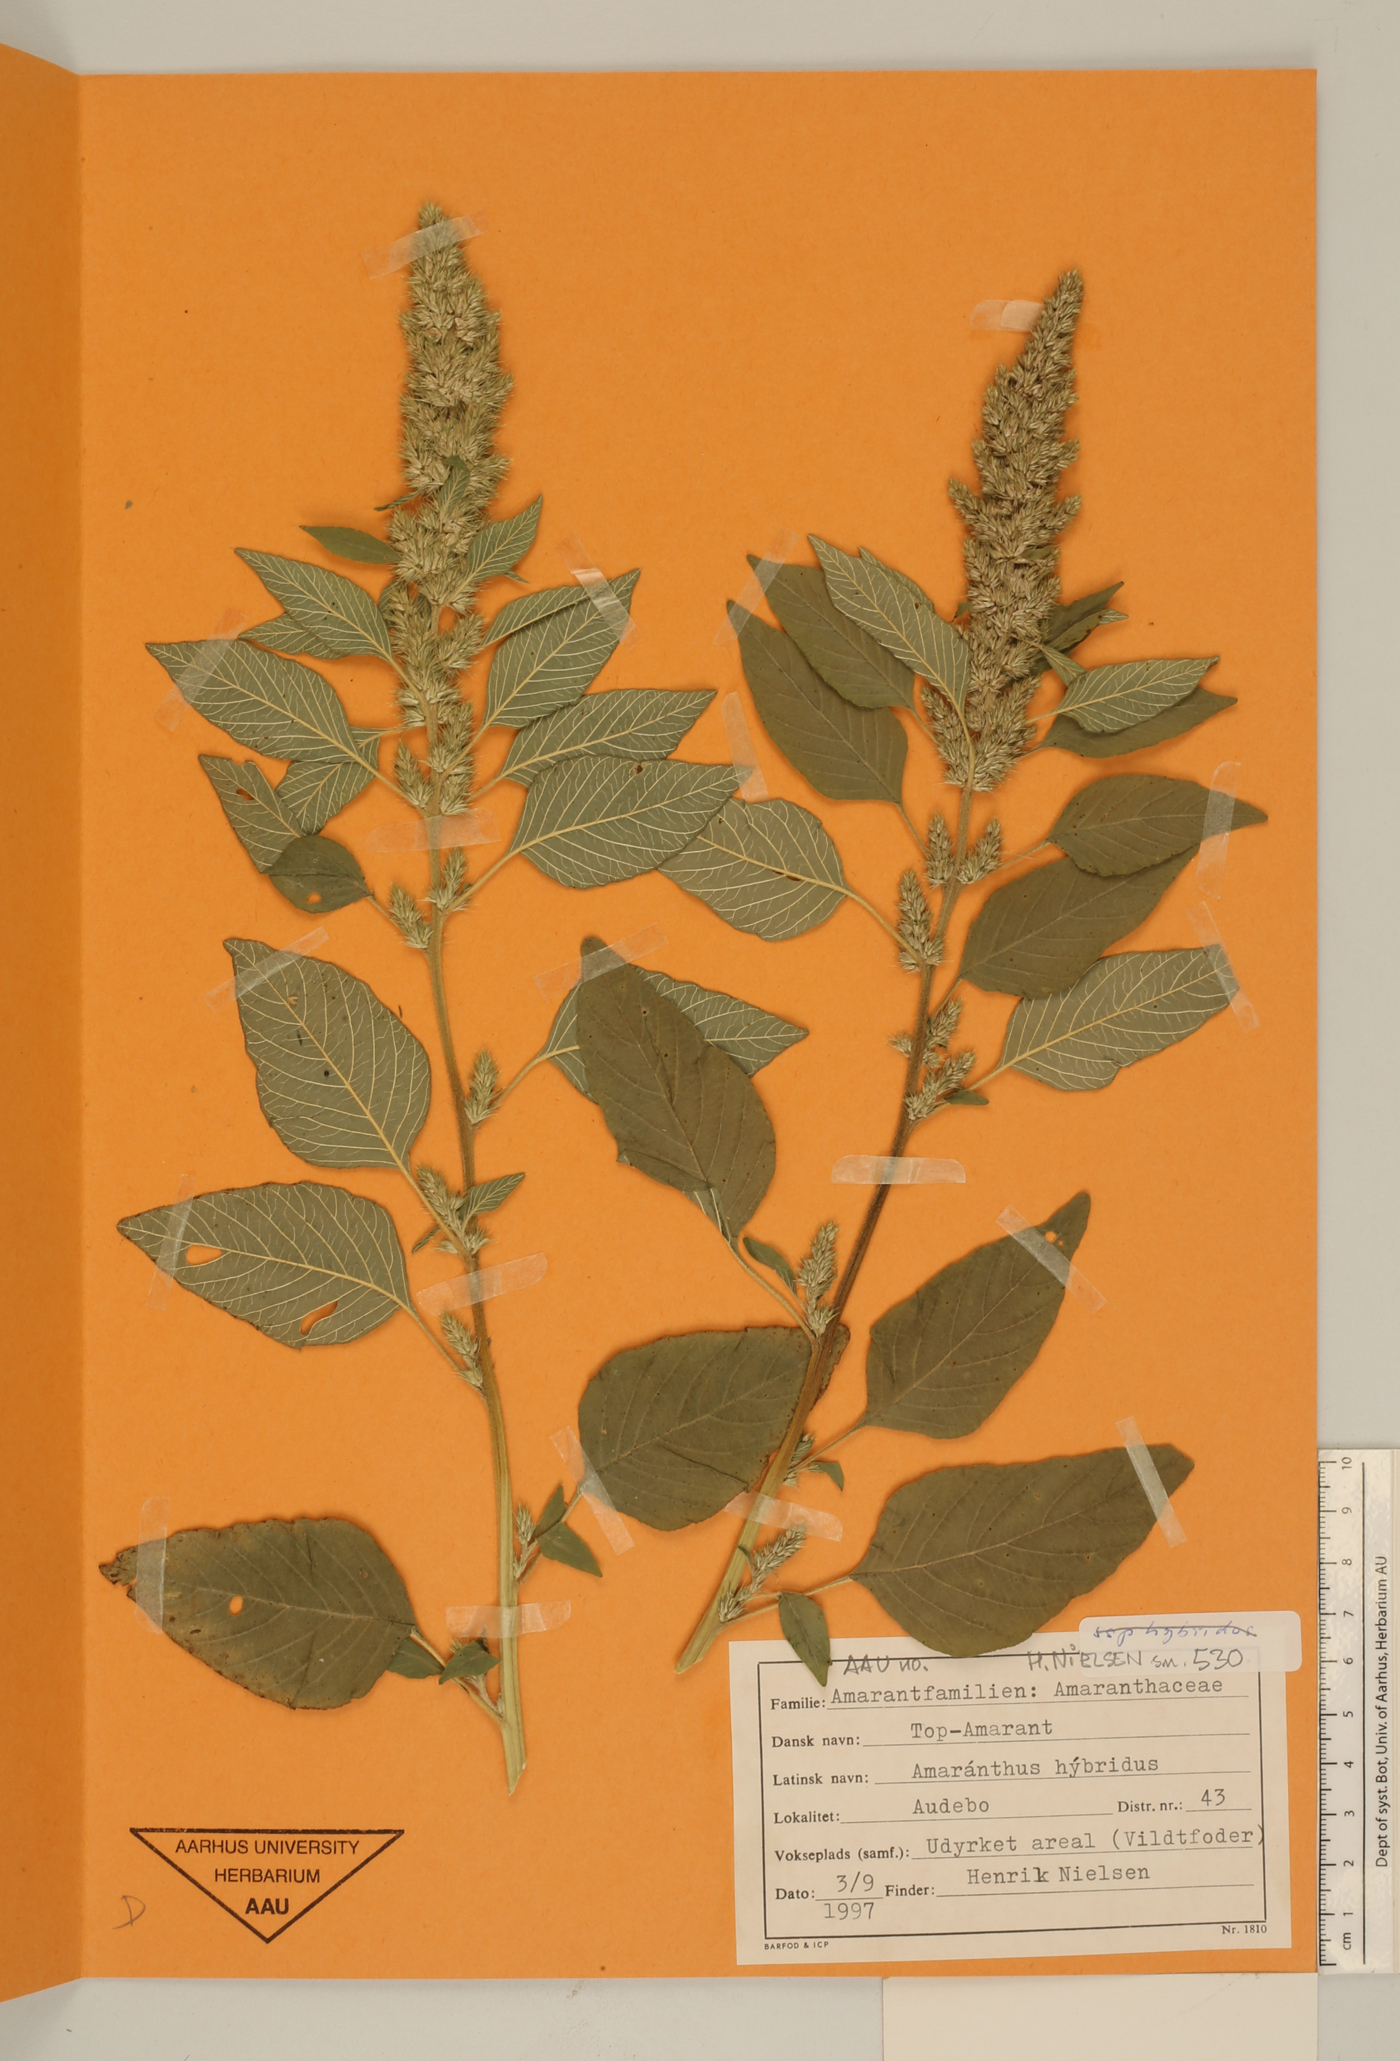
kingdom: Plantae
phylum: Tracheophyta
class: Magnoliopsida
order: Caryophyllales
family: Amaranthaceae
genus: Amaranthus
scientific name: Amaranthus hybridus
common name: Green amaranth
